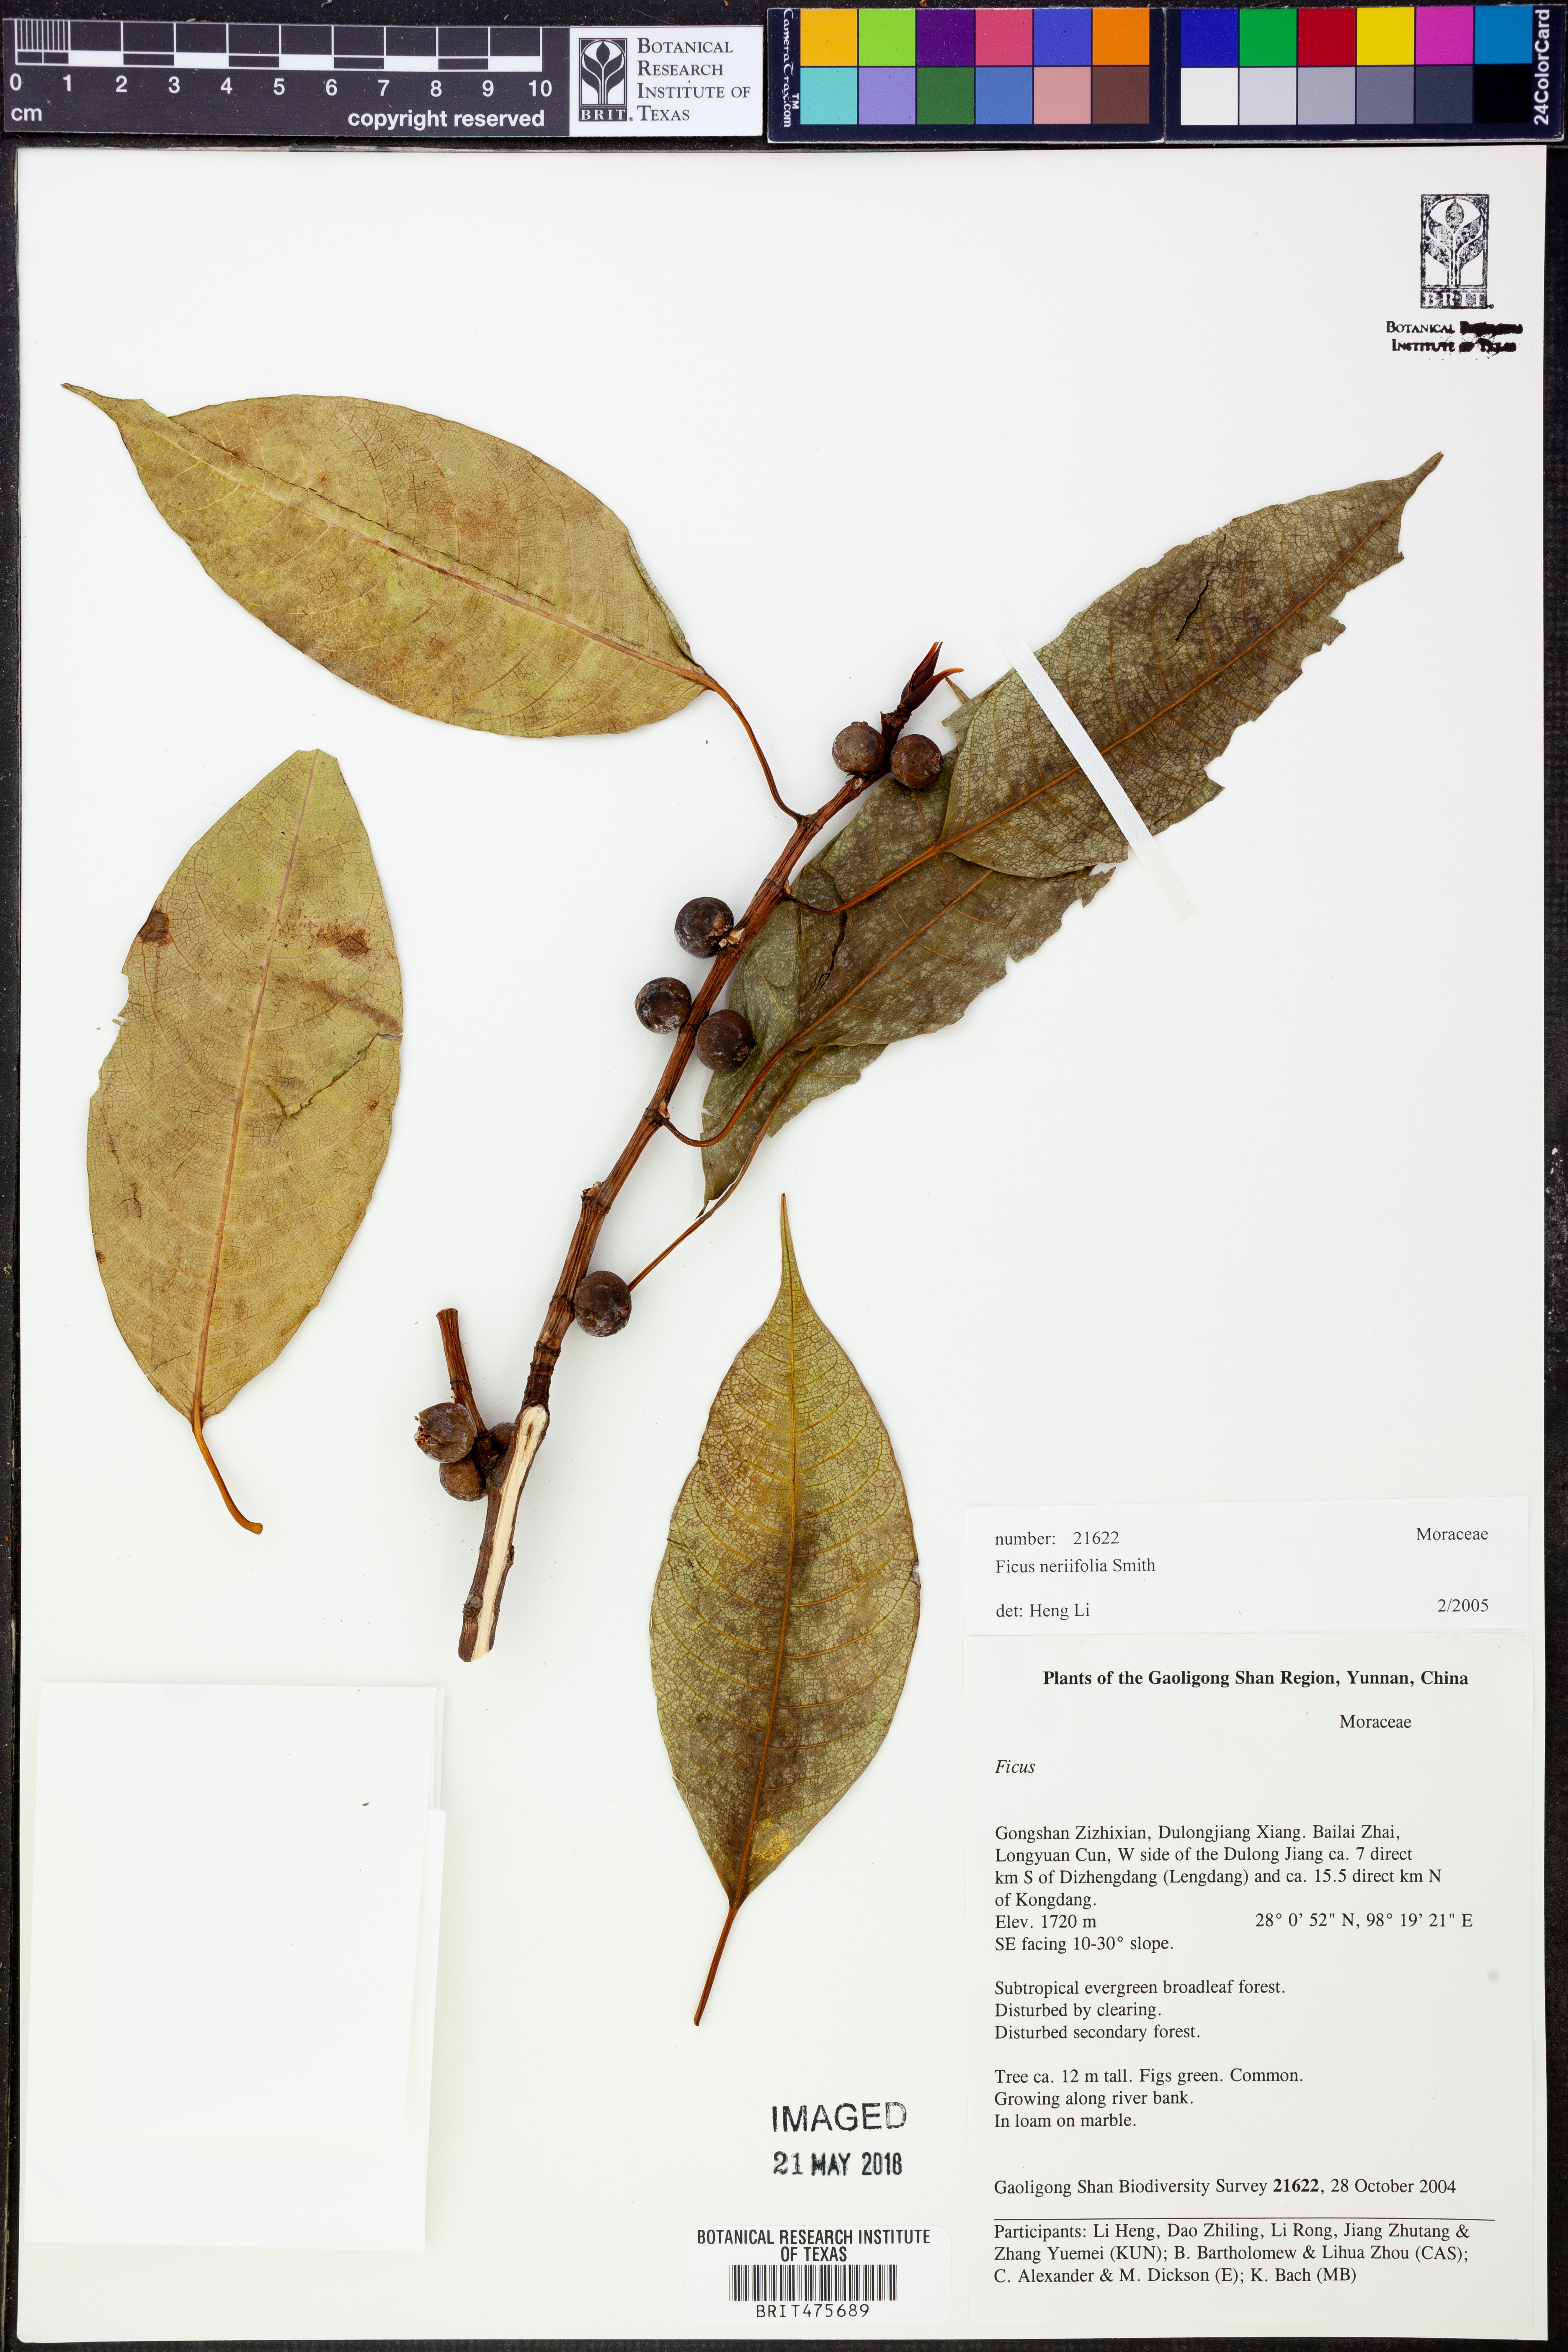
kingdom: Plantae
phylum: Tracheophyta
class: Magnoliopsida
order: Rosales
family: Moraceae
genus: Ficus
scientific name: Ficus salicifolia
